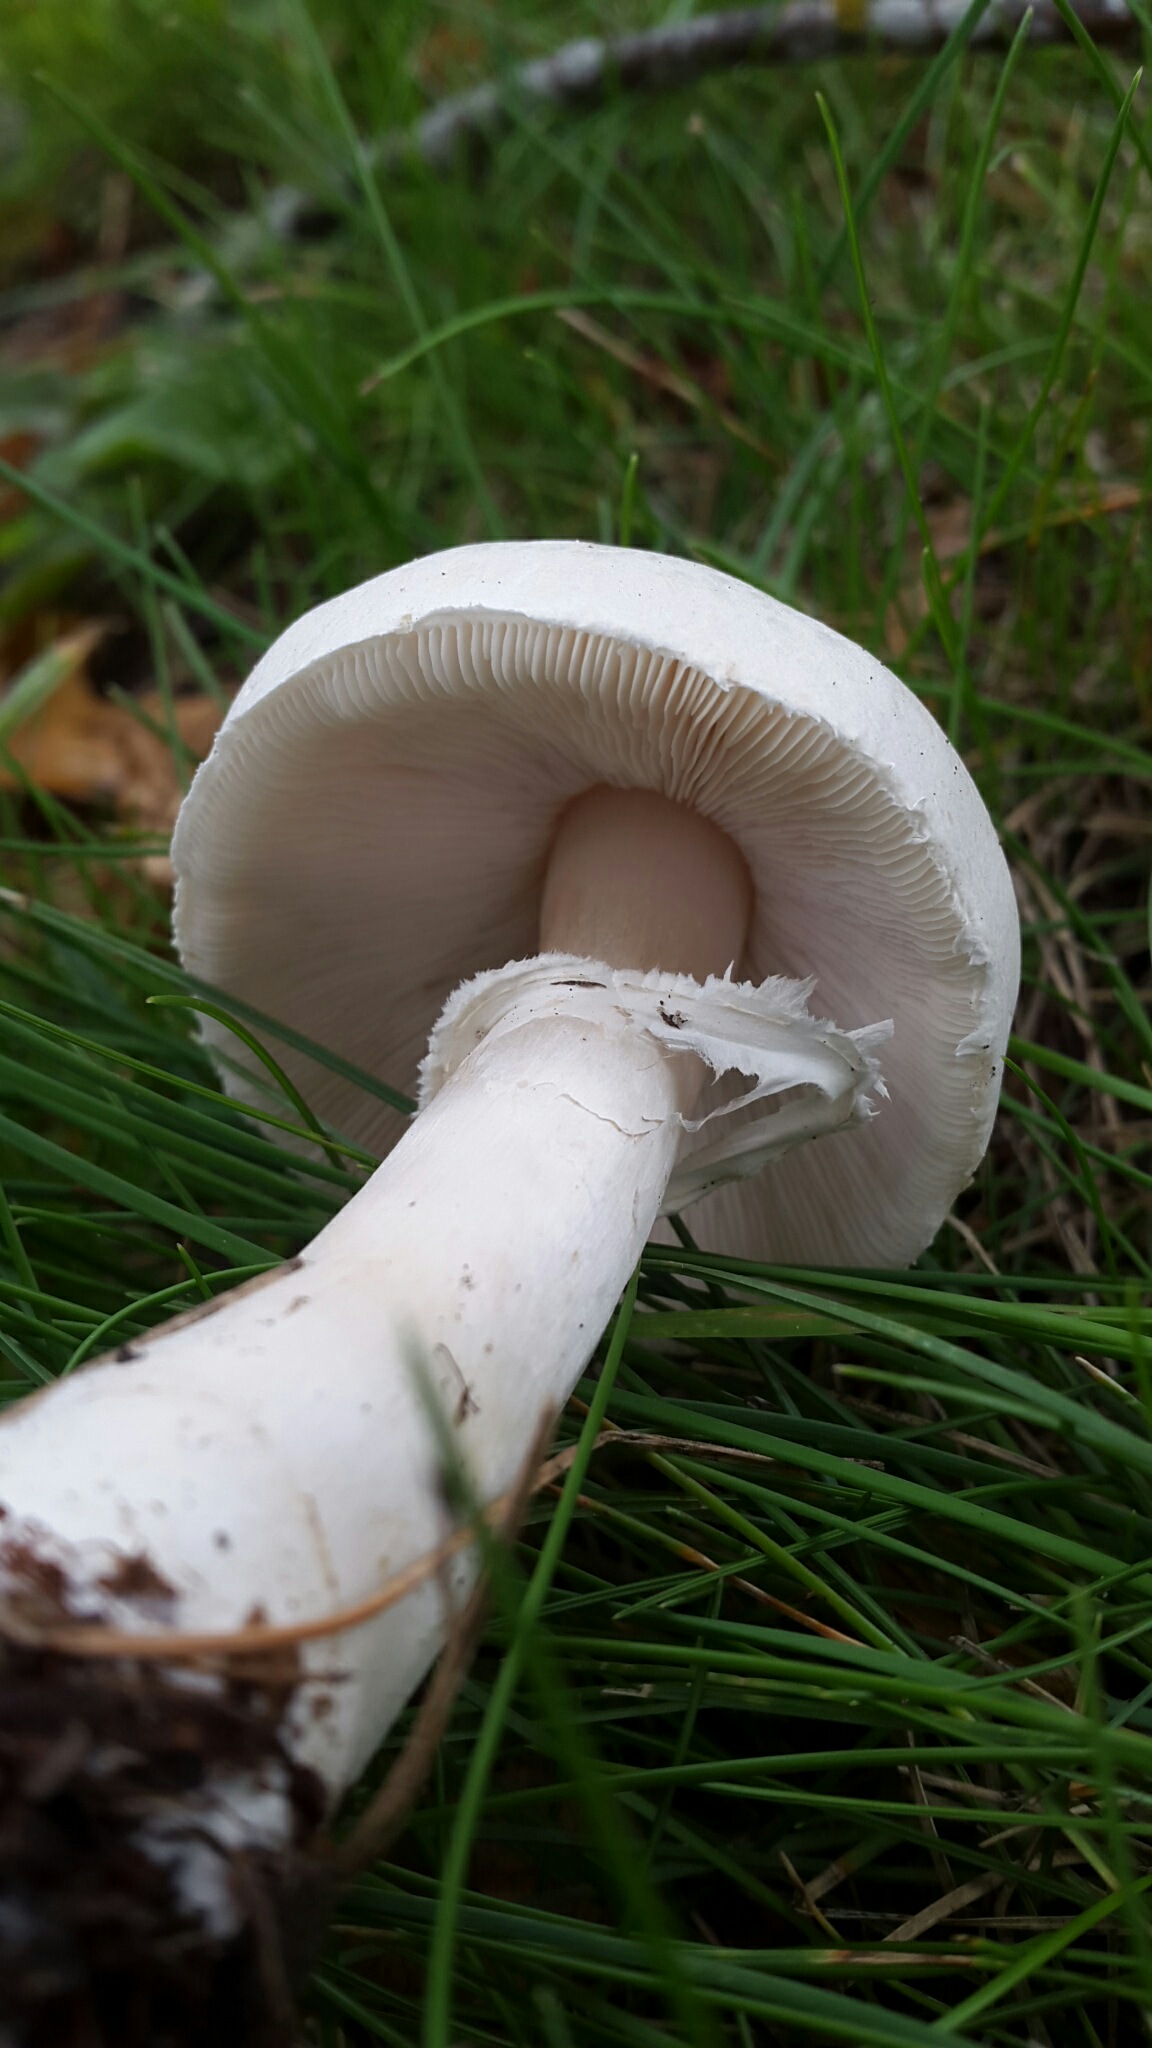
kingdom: Fungi
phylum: Basidiomycota
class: Agaricomycetes
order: Agaricales
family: Agaricaceae
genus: Leucoagaricus
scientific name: Leucoagaricus leucothites
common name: rosabladet silkehat
